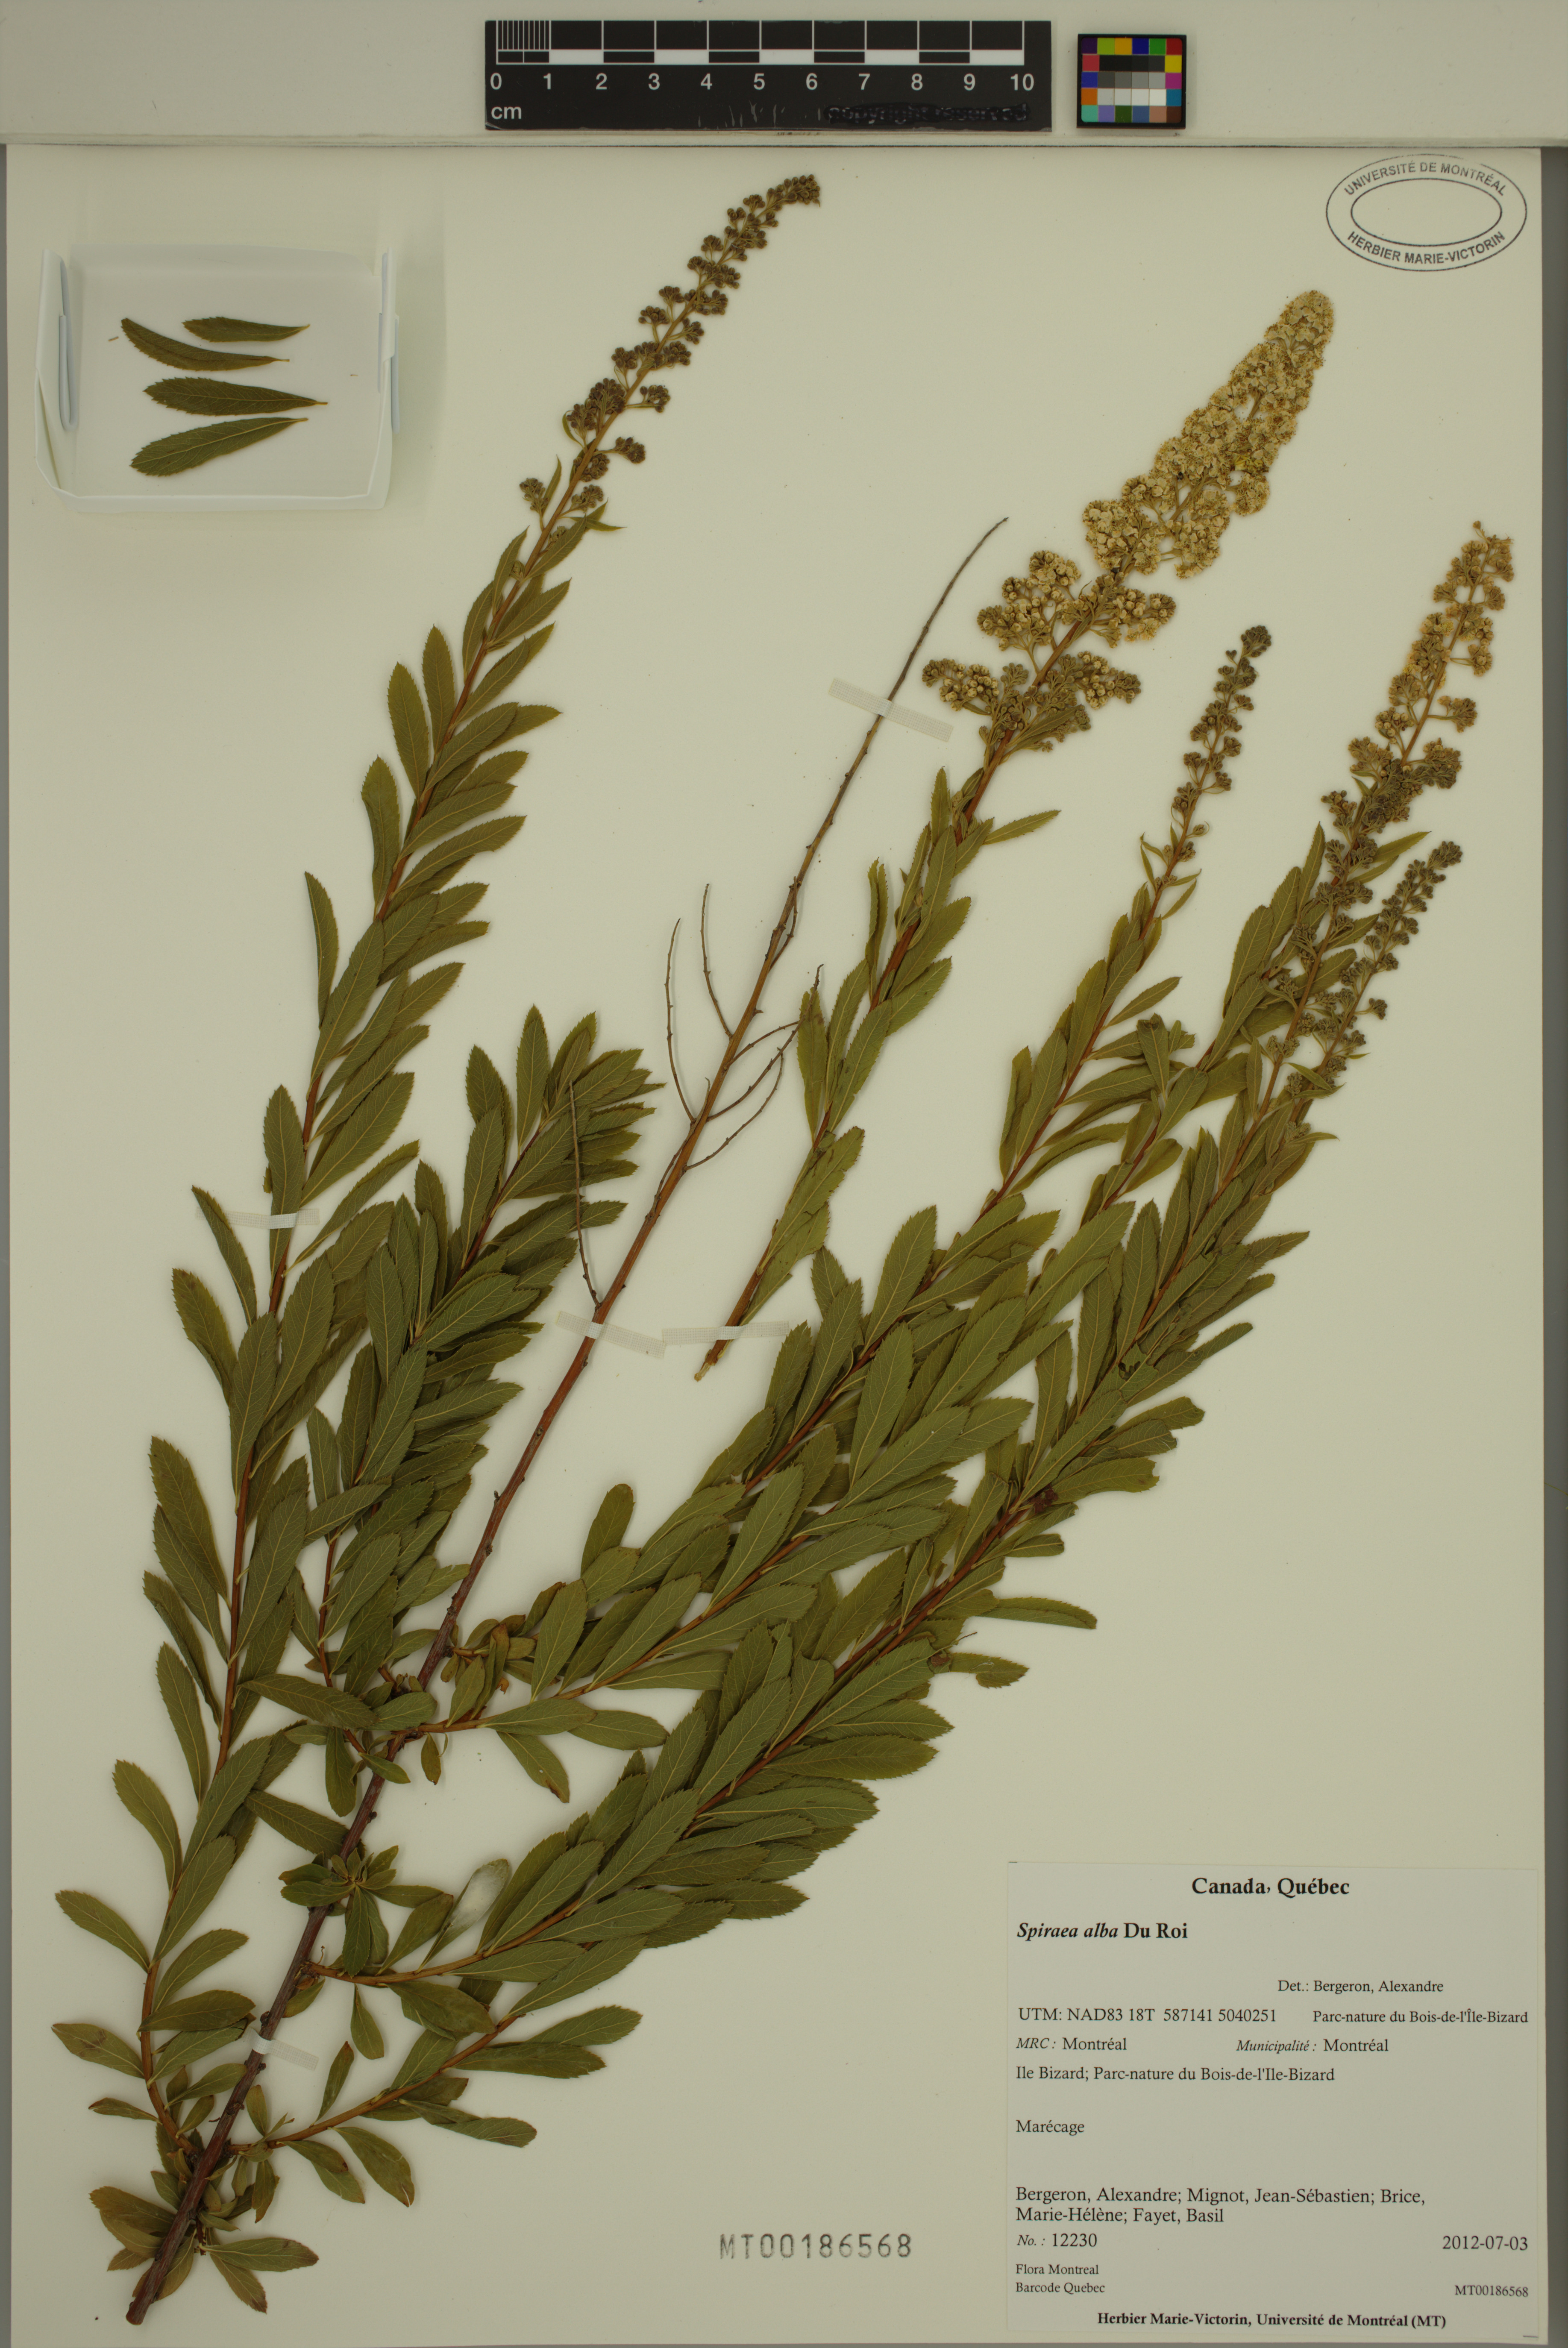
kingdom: Plantae
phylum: Tracheophyta
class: Magnoliopsida
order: Rosales
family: Rosaceae
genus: Spiraea
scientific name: Spiraea alba
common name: Pale bridewort
